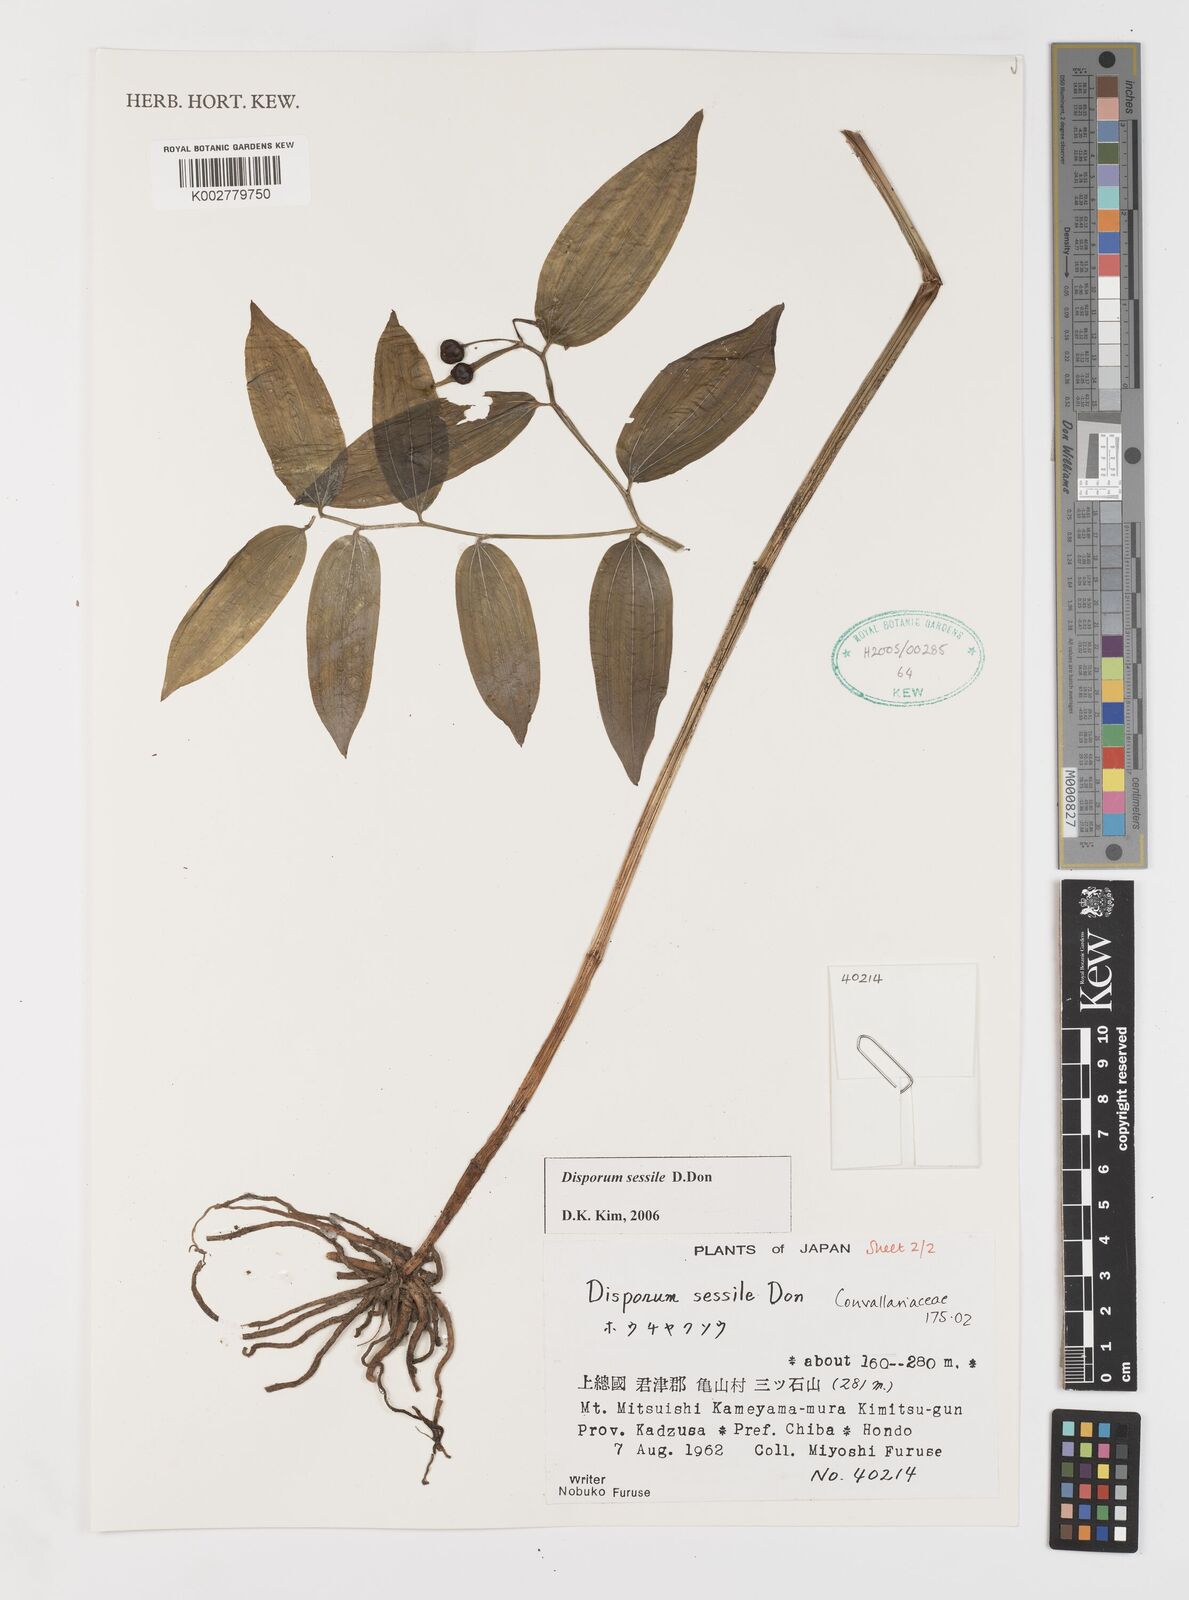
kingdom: Plantae
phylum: Tracheophyta
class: Liliopsida
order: Liliales
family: Colchicaceae
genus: Disporum
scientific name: Disporum sessile
